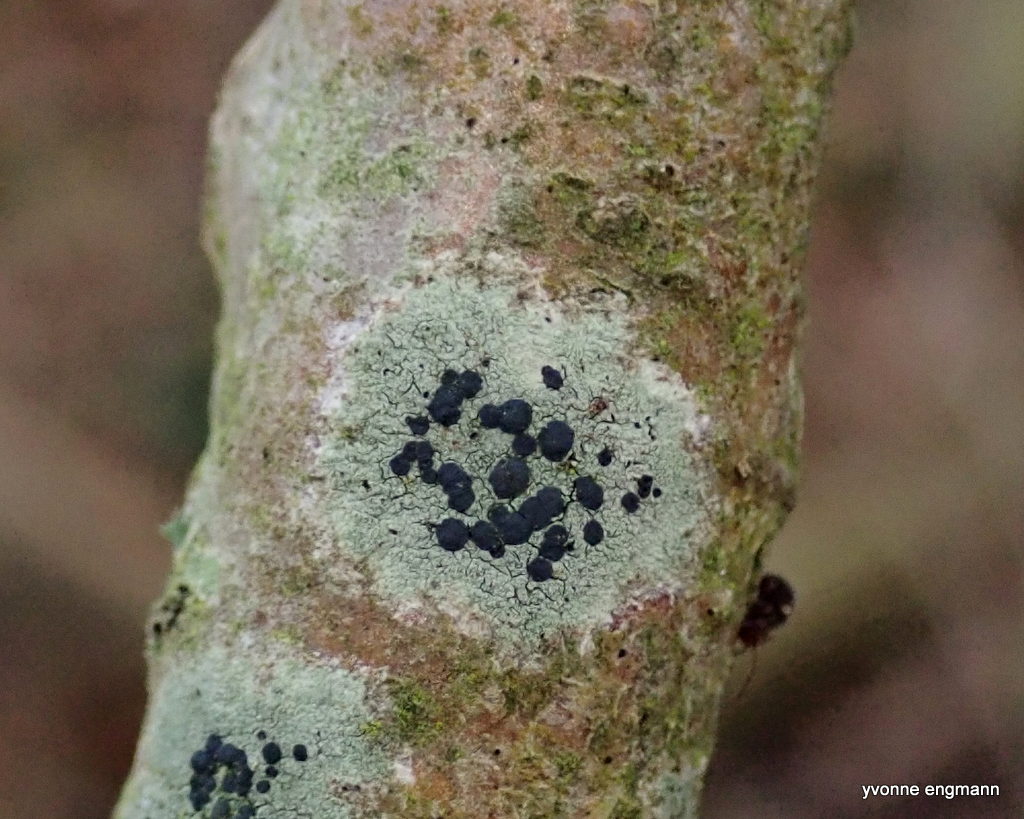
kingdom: Fungi
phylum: Ascomycota
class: Lecanoromycetes
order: Lecanorales
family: Lecanoraceae
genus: Lecidella
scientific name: Lecidella elaeochroma
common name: grågrøn skivelav
